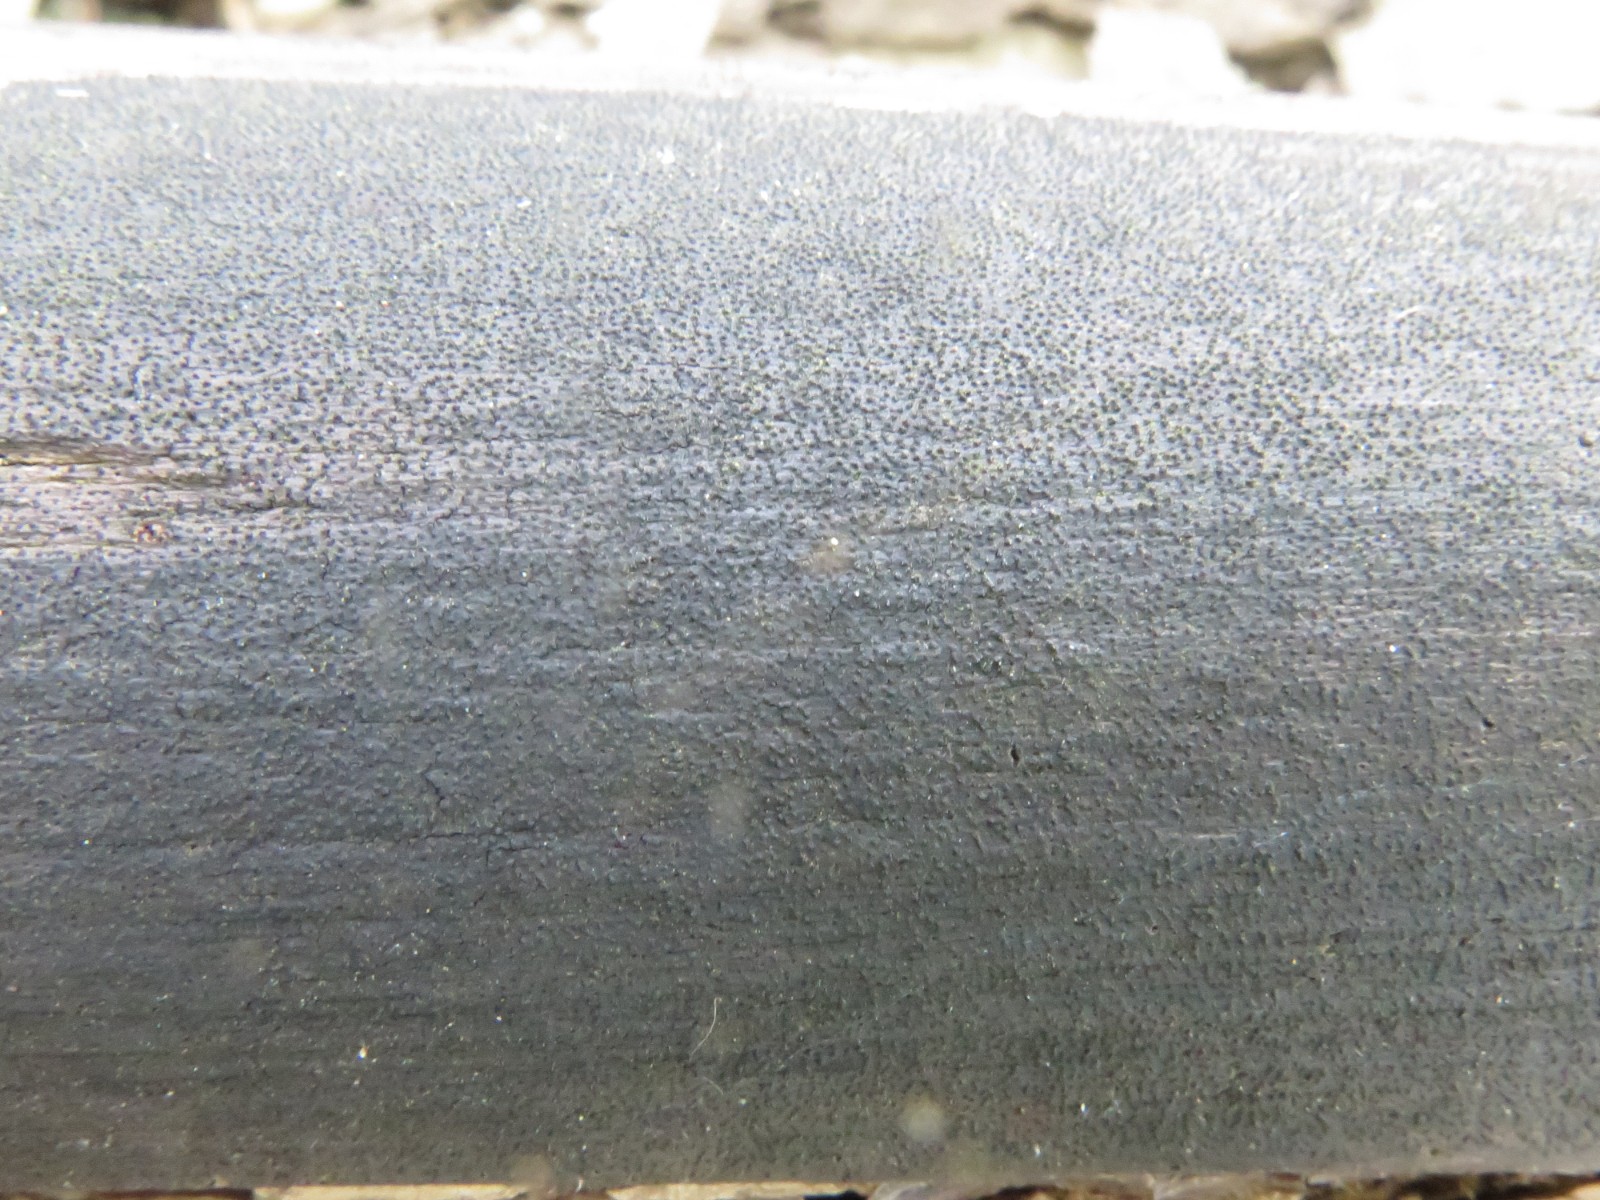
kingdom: Fungi
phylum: Ascomycota
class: Sordariomycetes
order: Xylariales
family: Diatrypaceae
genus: Eutypa
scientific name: Eutypa maura
